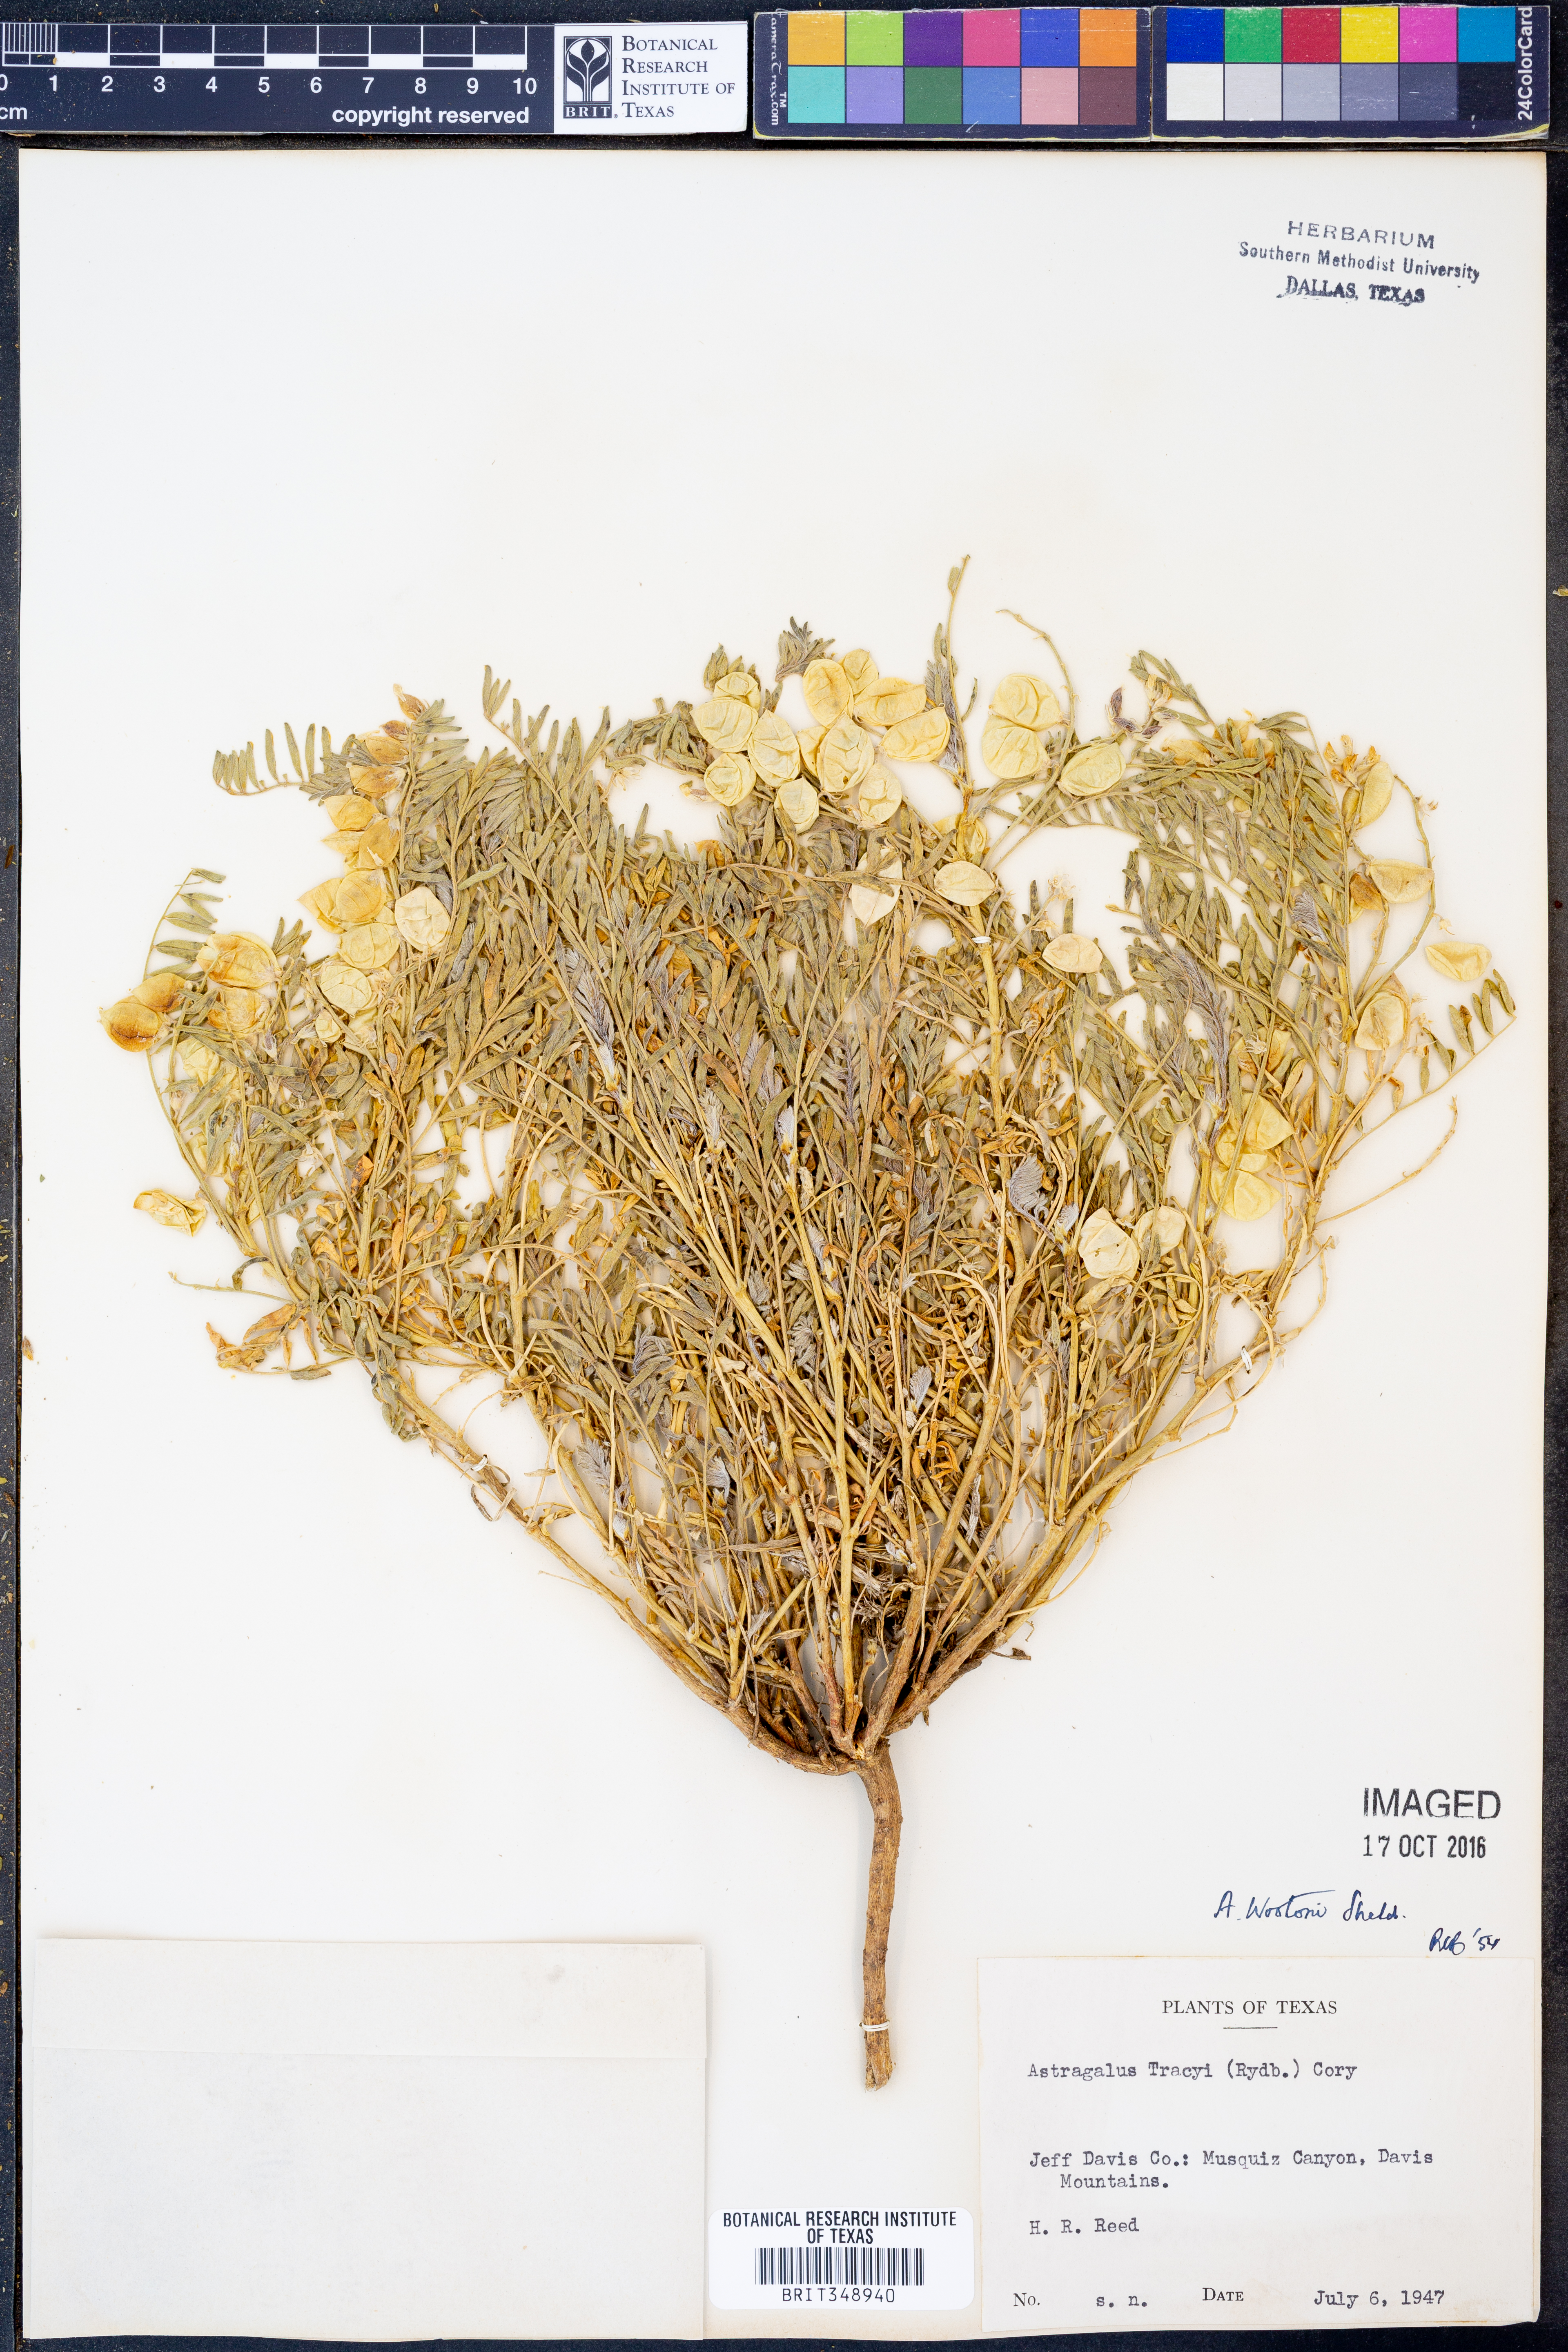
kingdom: Plantae
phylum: Tracheophyta
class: Magnoliopsida
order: Fabales
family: Fabaceae
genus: Astragalus
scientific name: Astragalus wootonii
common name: Wooton's milk-vetch
